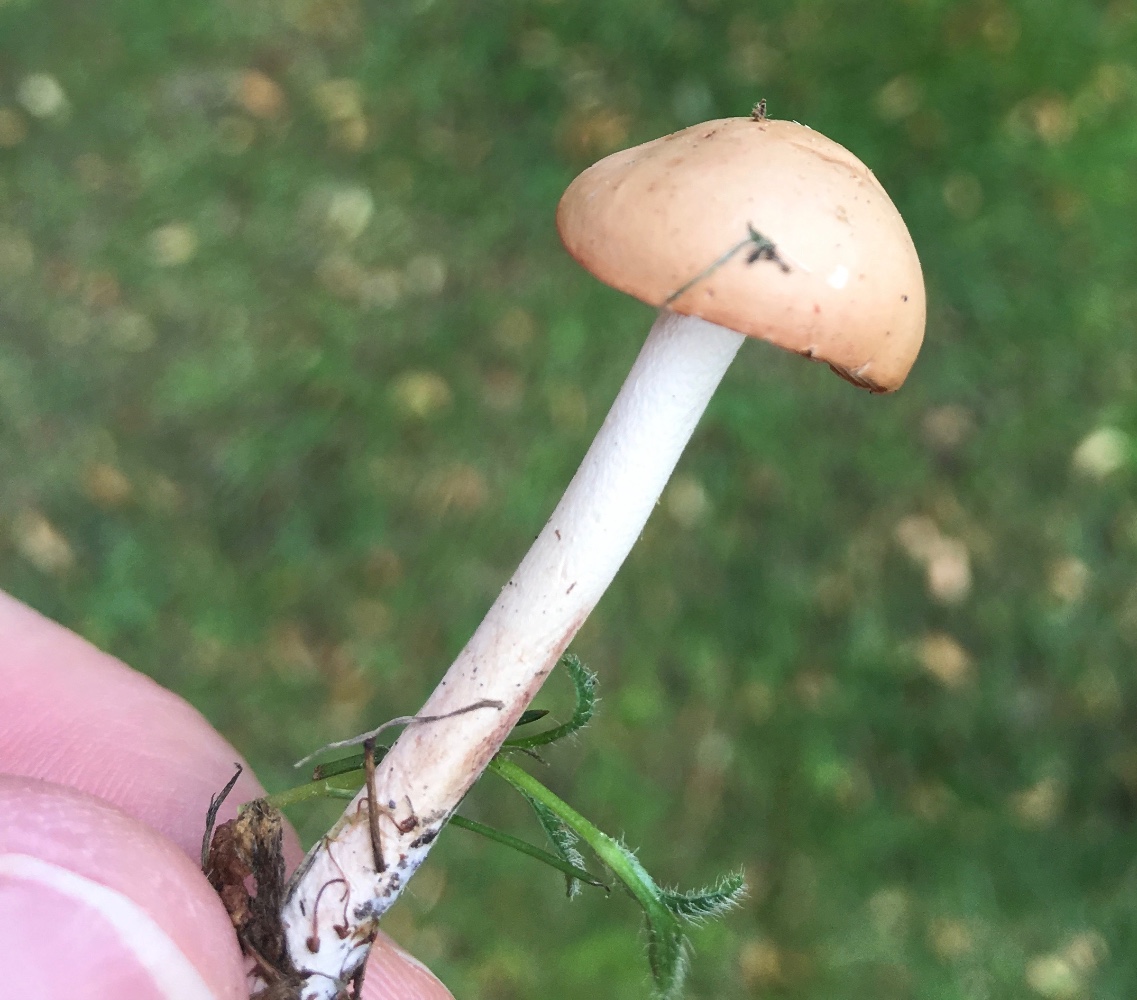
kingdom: Fungi
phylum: Basidiomycota
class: Agaricomycetes
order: Agaricales
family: Marasmiaceae
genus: Marasmius
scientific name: Marasmius oreades
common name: elledans-bruskhat
